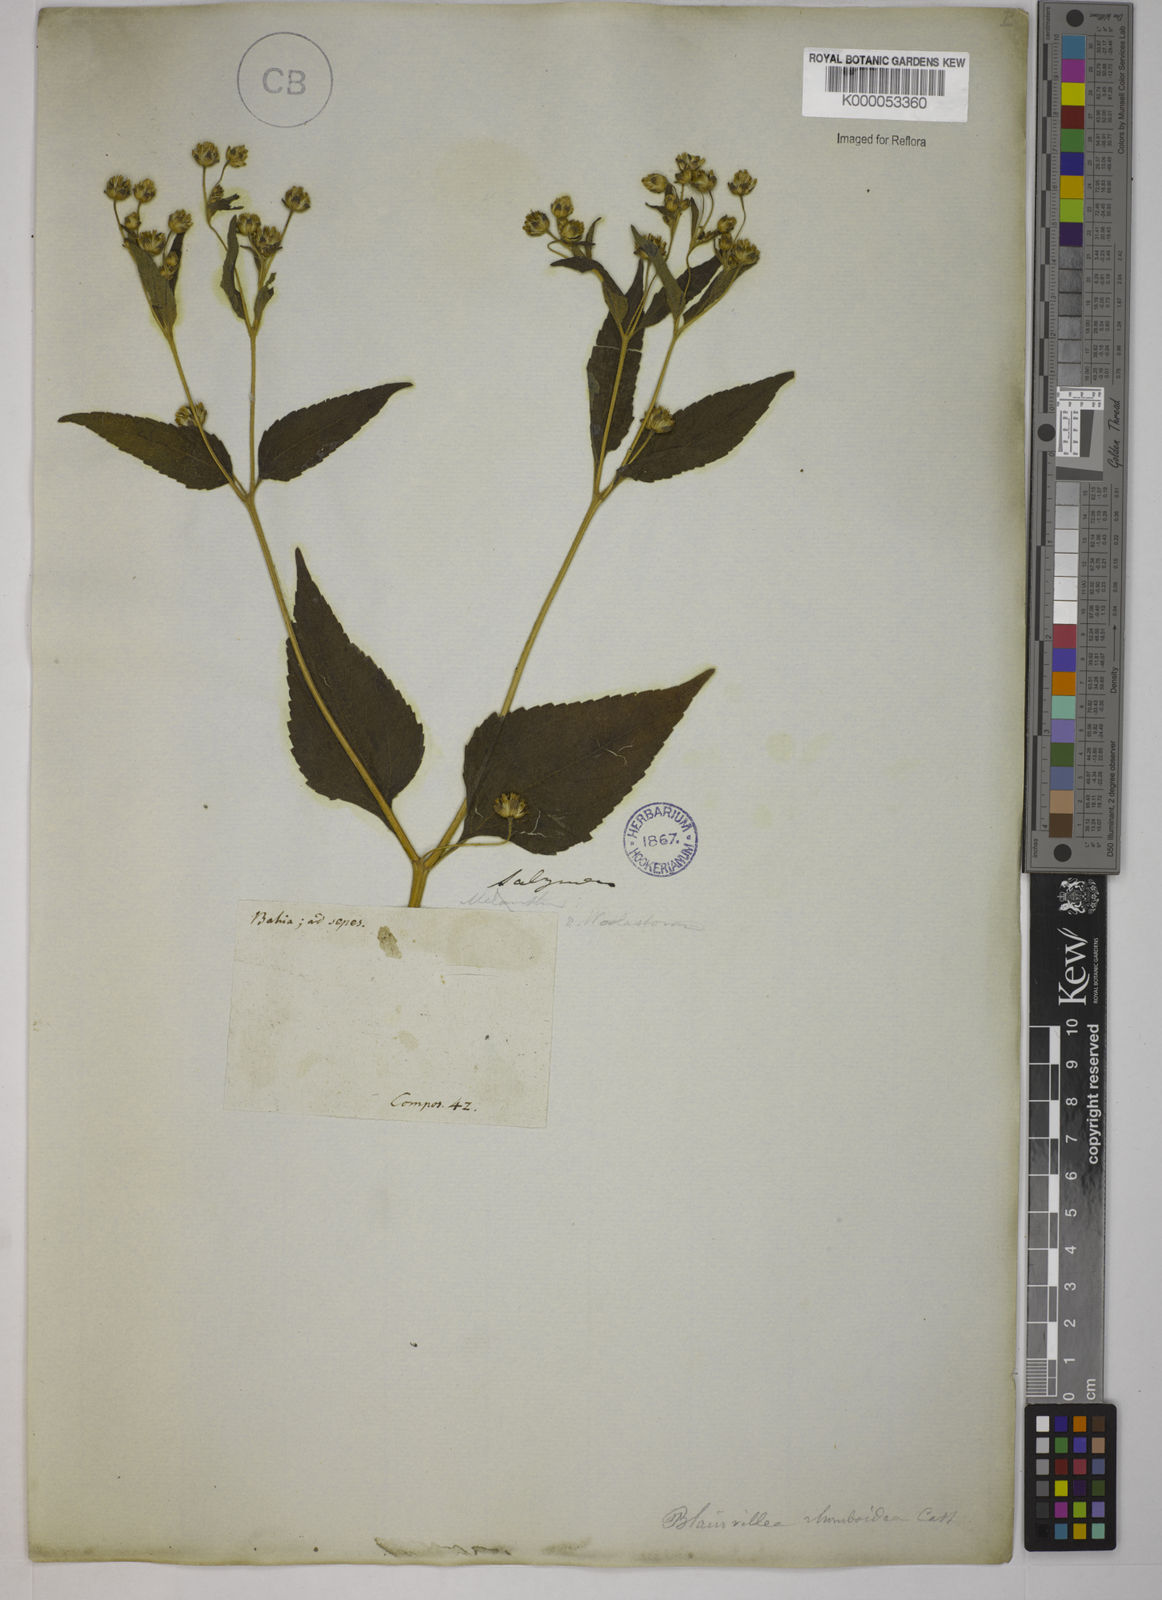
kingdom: Plantae
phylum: Tracheophyta
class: Magnoliopsida
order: Asterales
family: Asteraceae
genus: Blainvillea
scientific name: Blainvillea acmella
